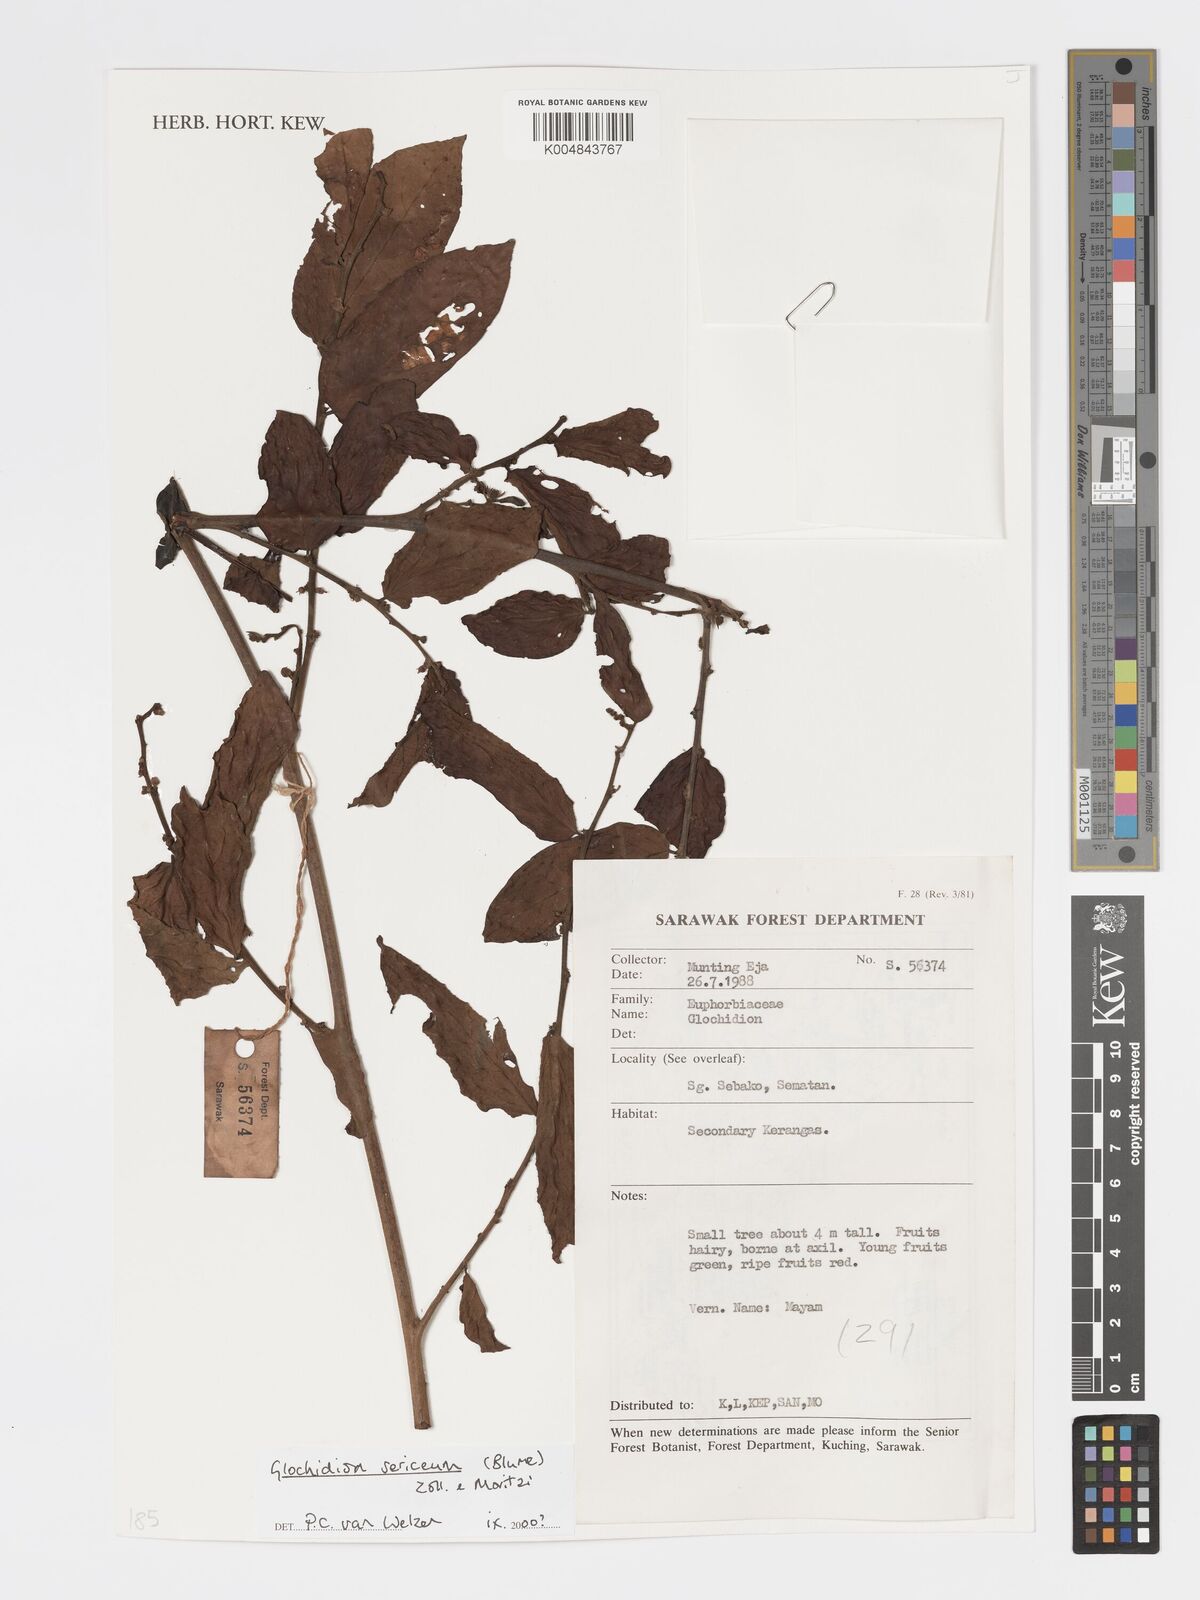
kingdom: Plantae
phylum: Tracheophyta
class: Magnoliopsida
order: Malpighiales
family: Phyllanthaceae
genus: Glochidion
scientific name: Glochidion sericeum
